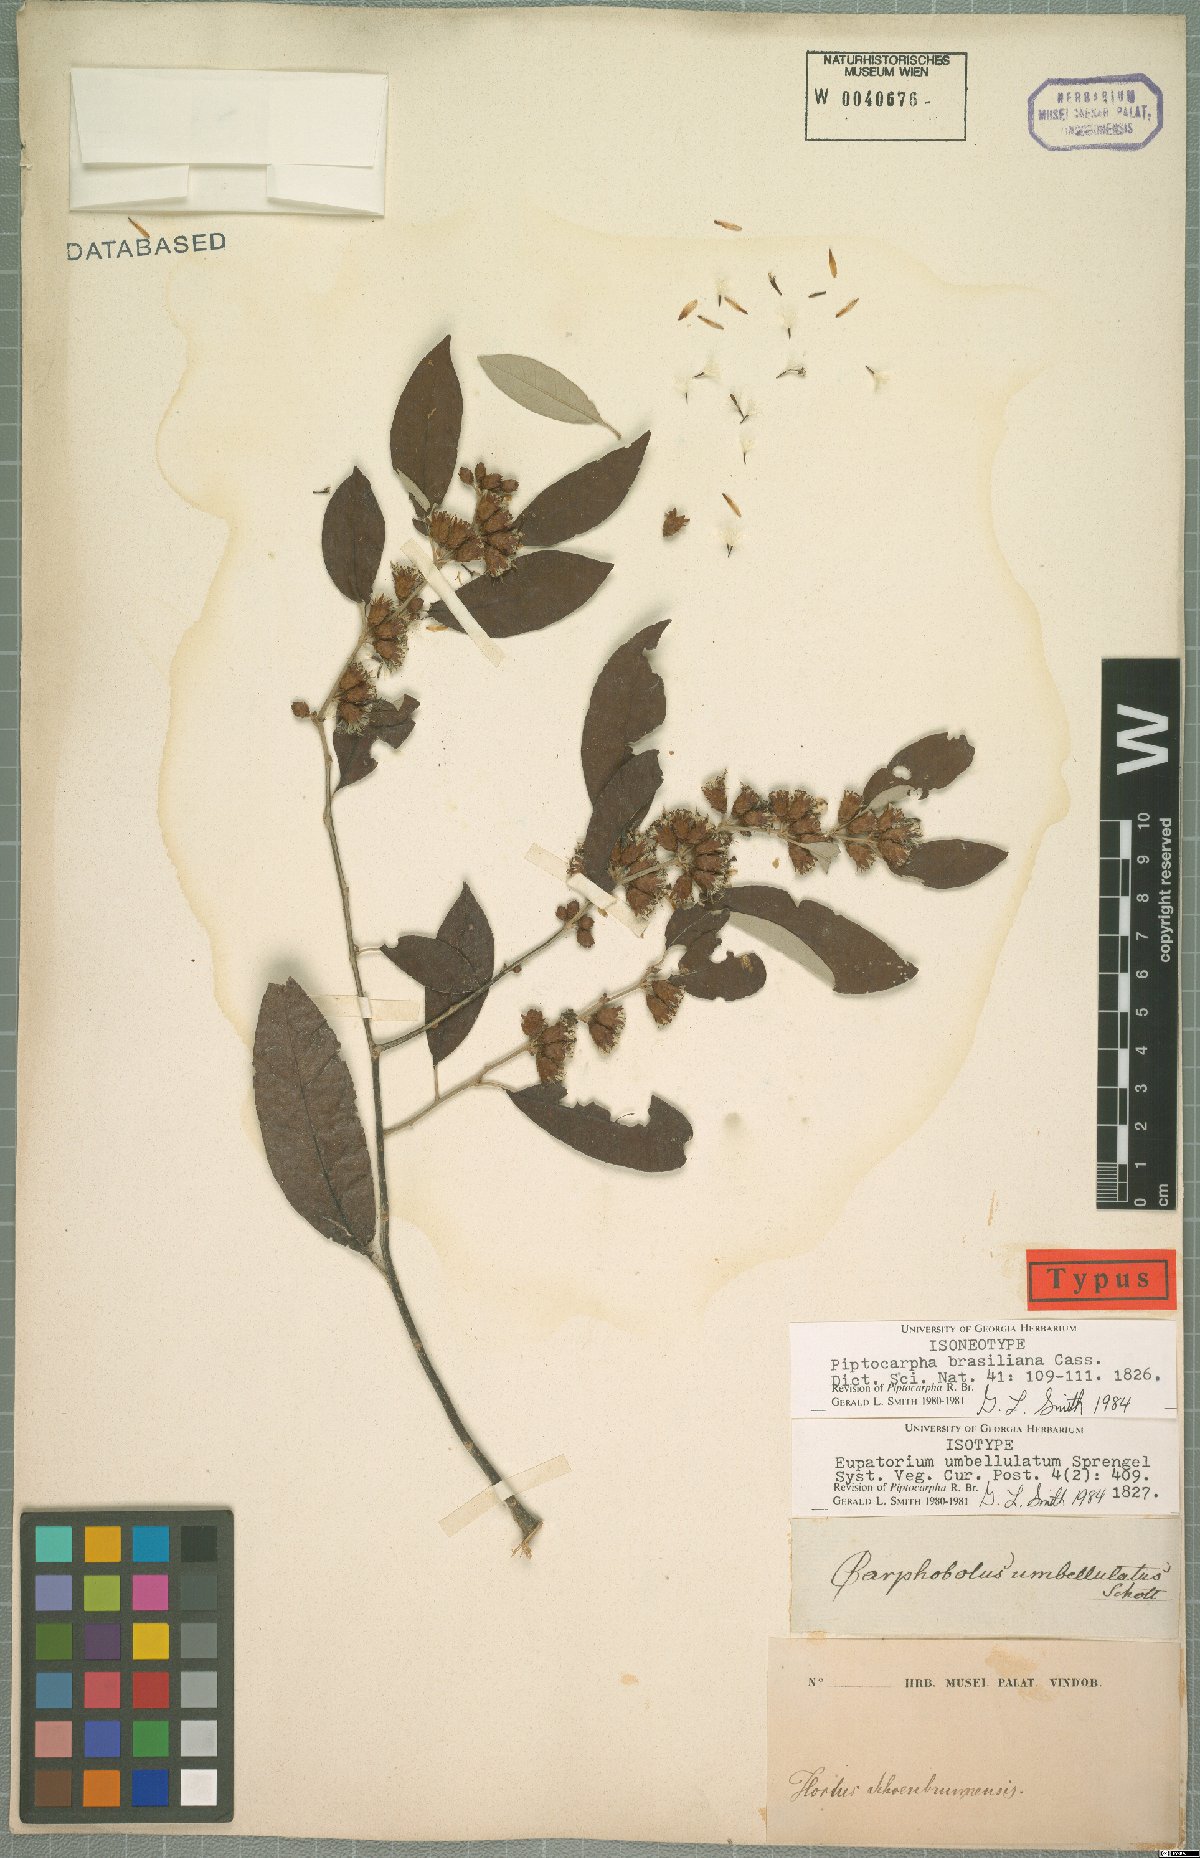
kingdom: Plantae
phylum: Tracheophyta
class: Magnoliopsida
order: Asterales
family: Asteraceae
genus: Piptocarpha
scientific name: Piptocarpha brasiliana
